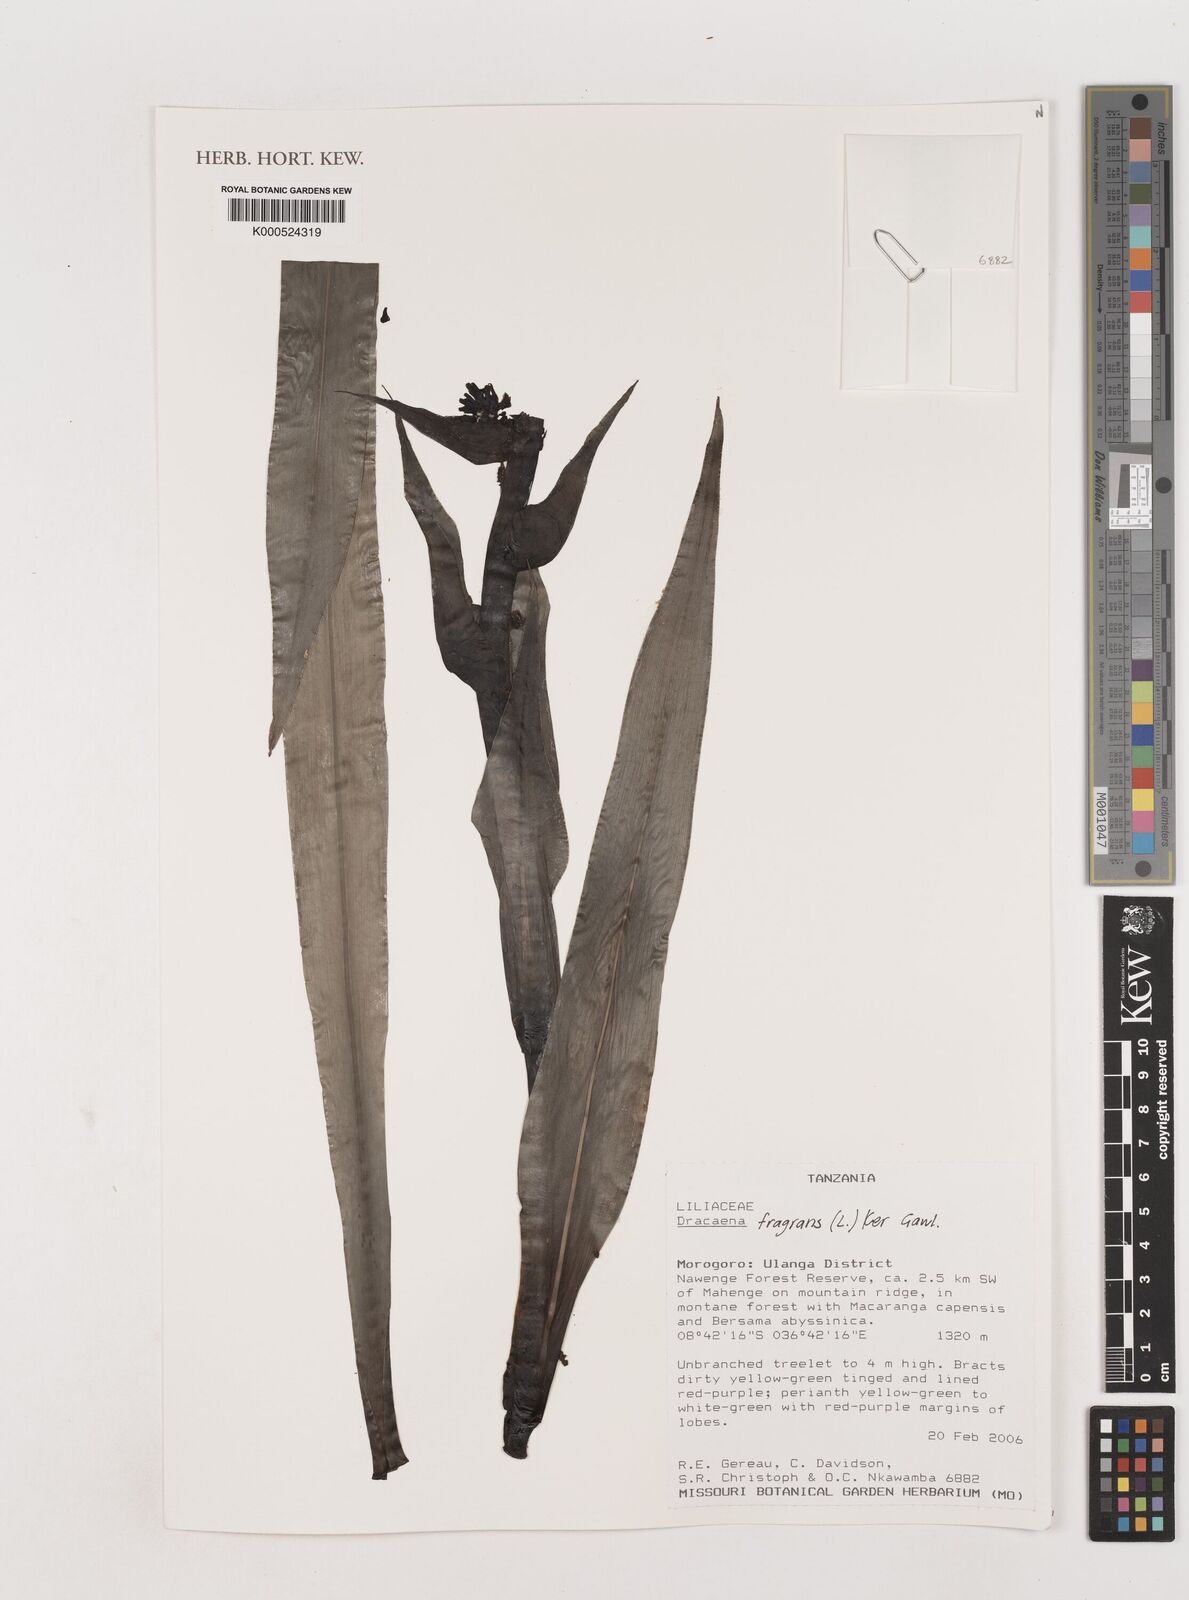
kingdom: Plantae
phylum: Tracheophyta
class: Liliopsida
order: Asparagales
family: Asparagaceae
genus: Dracaena
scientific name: Dracaena fragrans
